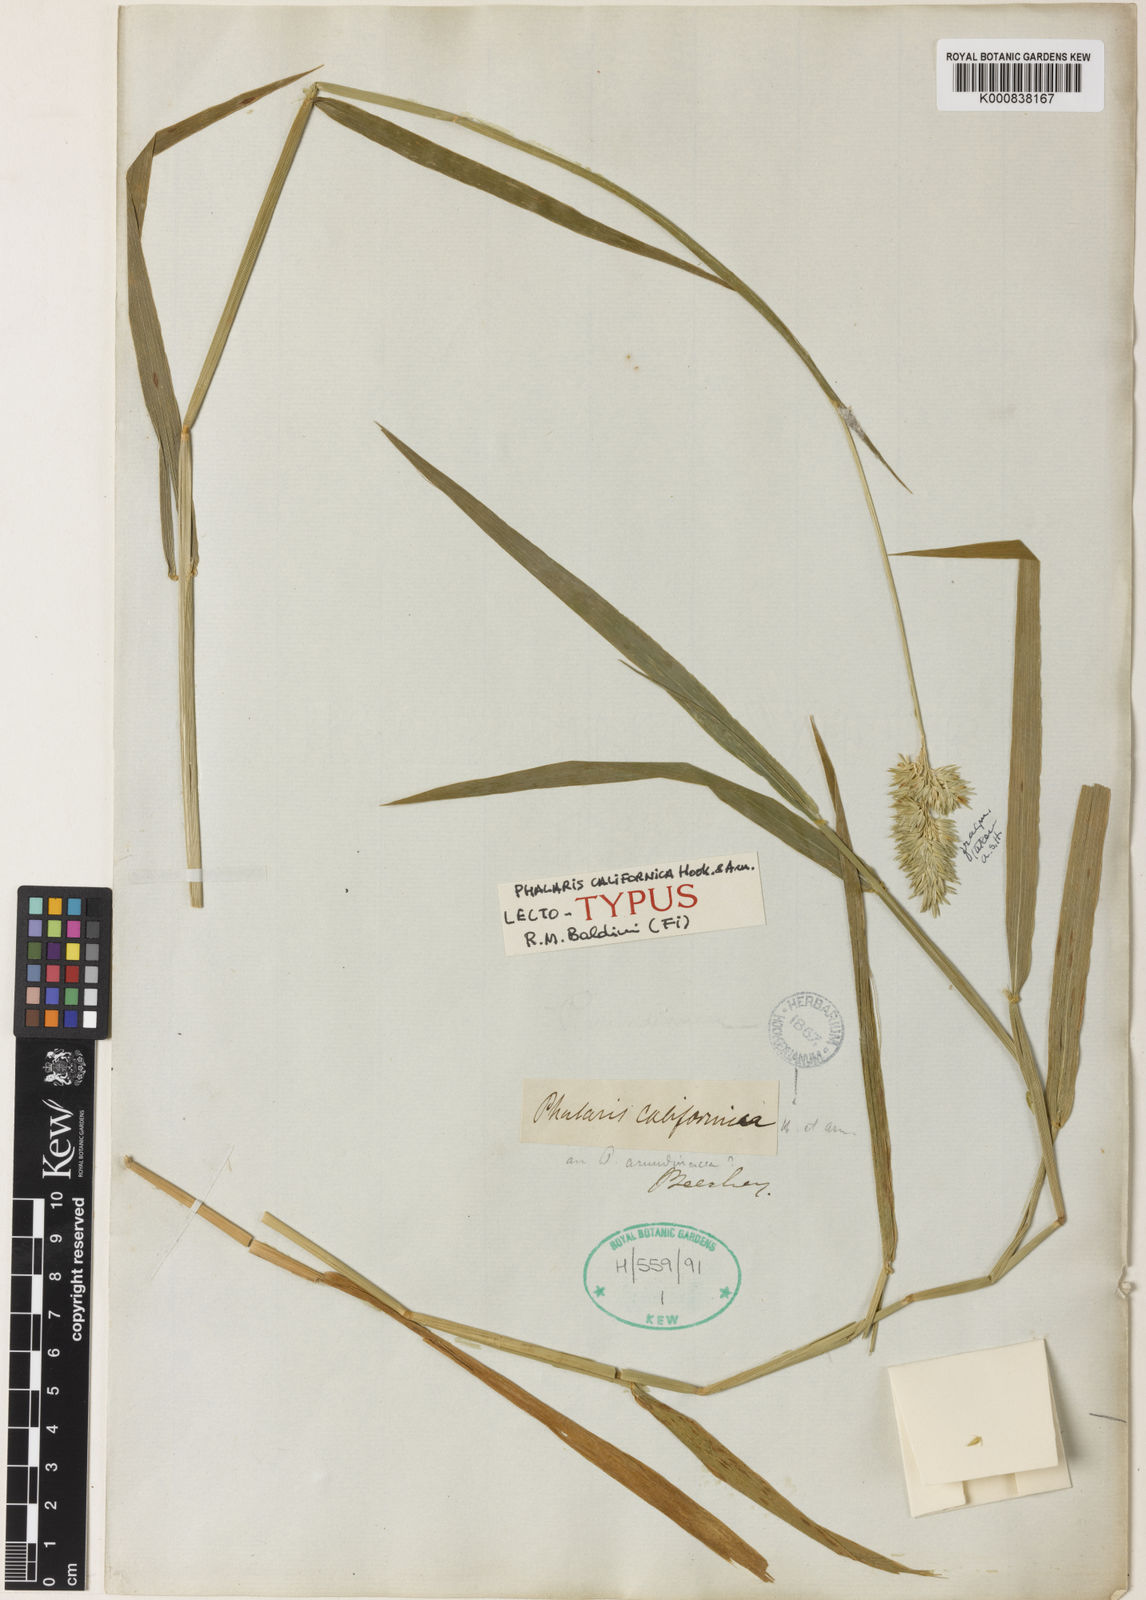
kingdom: Plantae
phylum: Tracheophyta
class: Liliopsida
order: Poales
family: Poaceae
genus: Phalaris
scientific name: Phalaris californica
